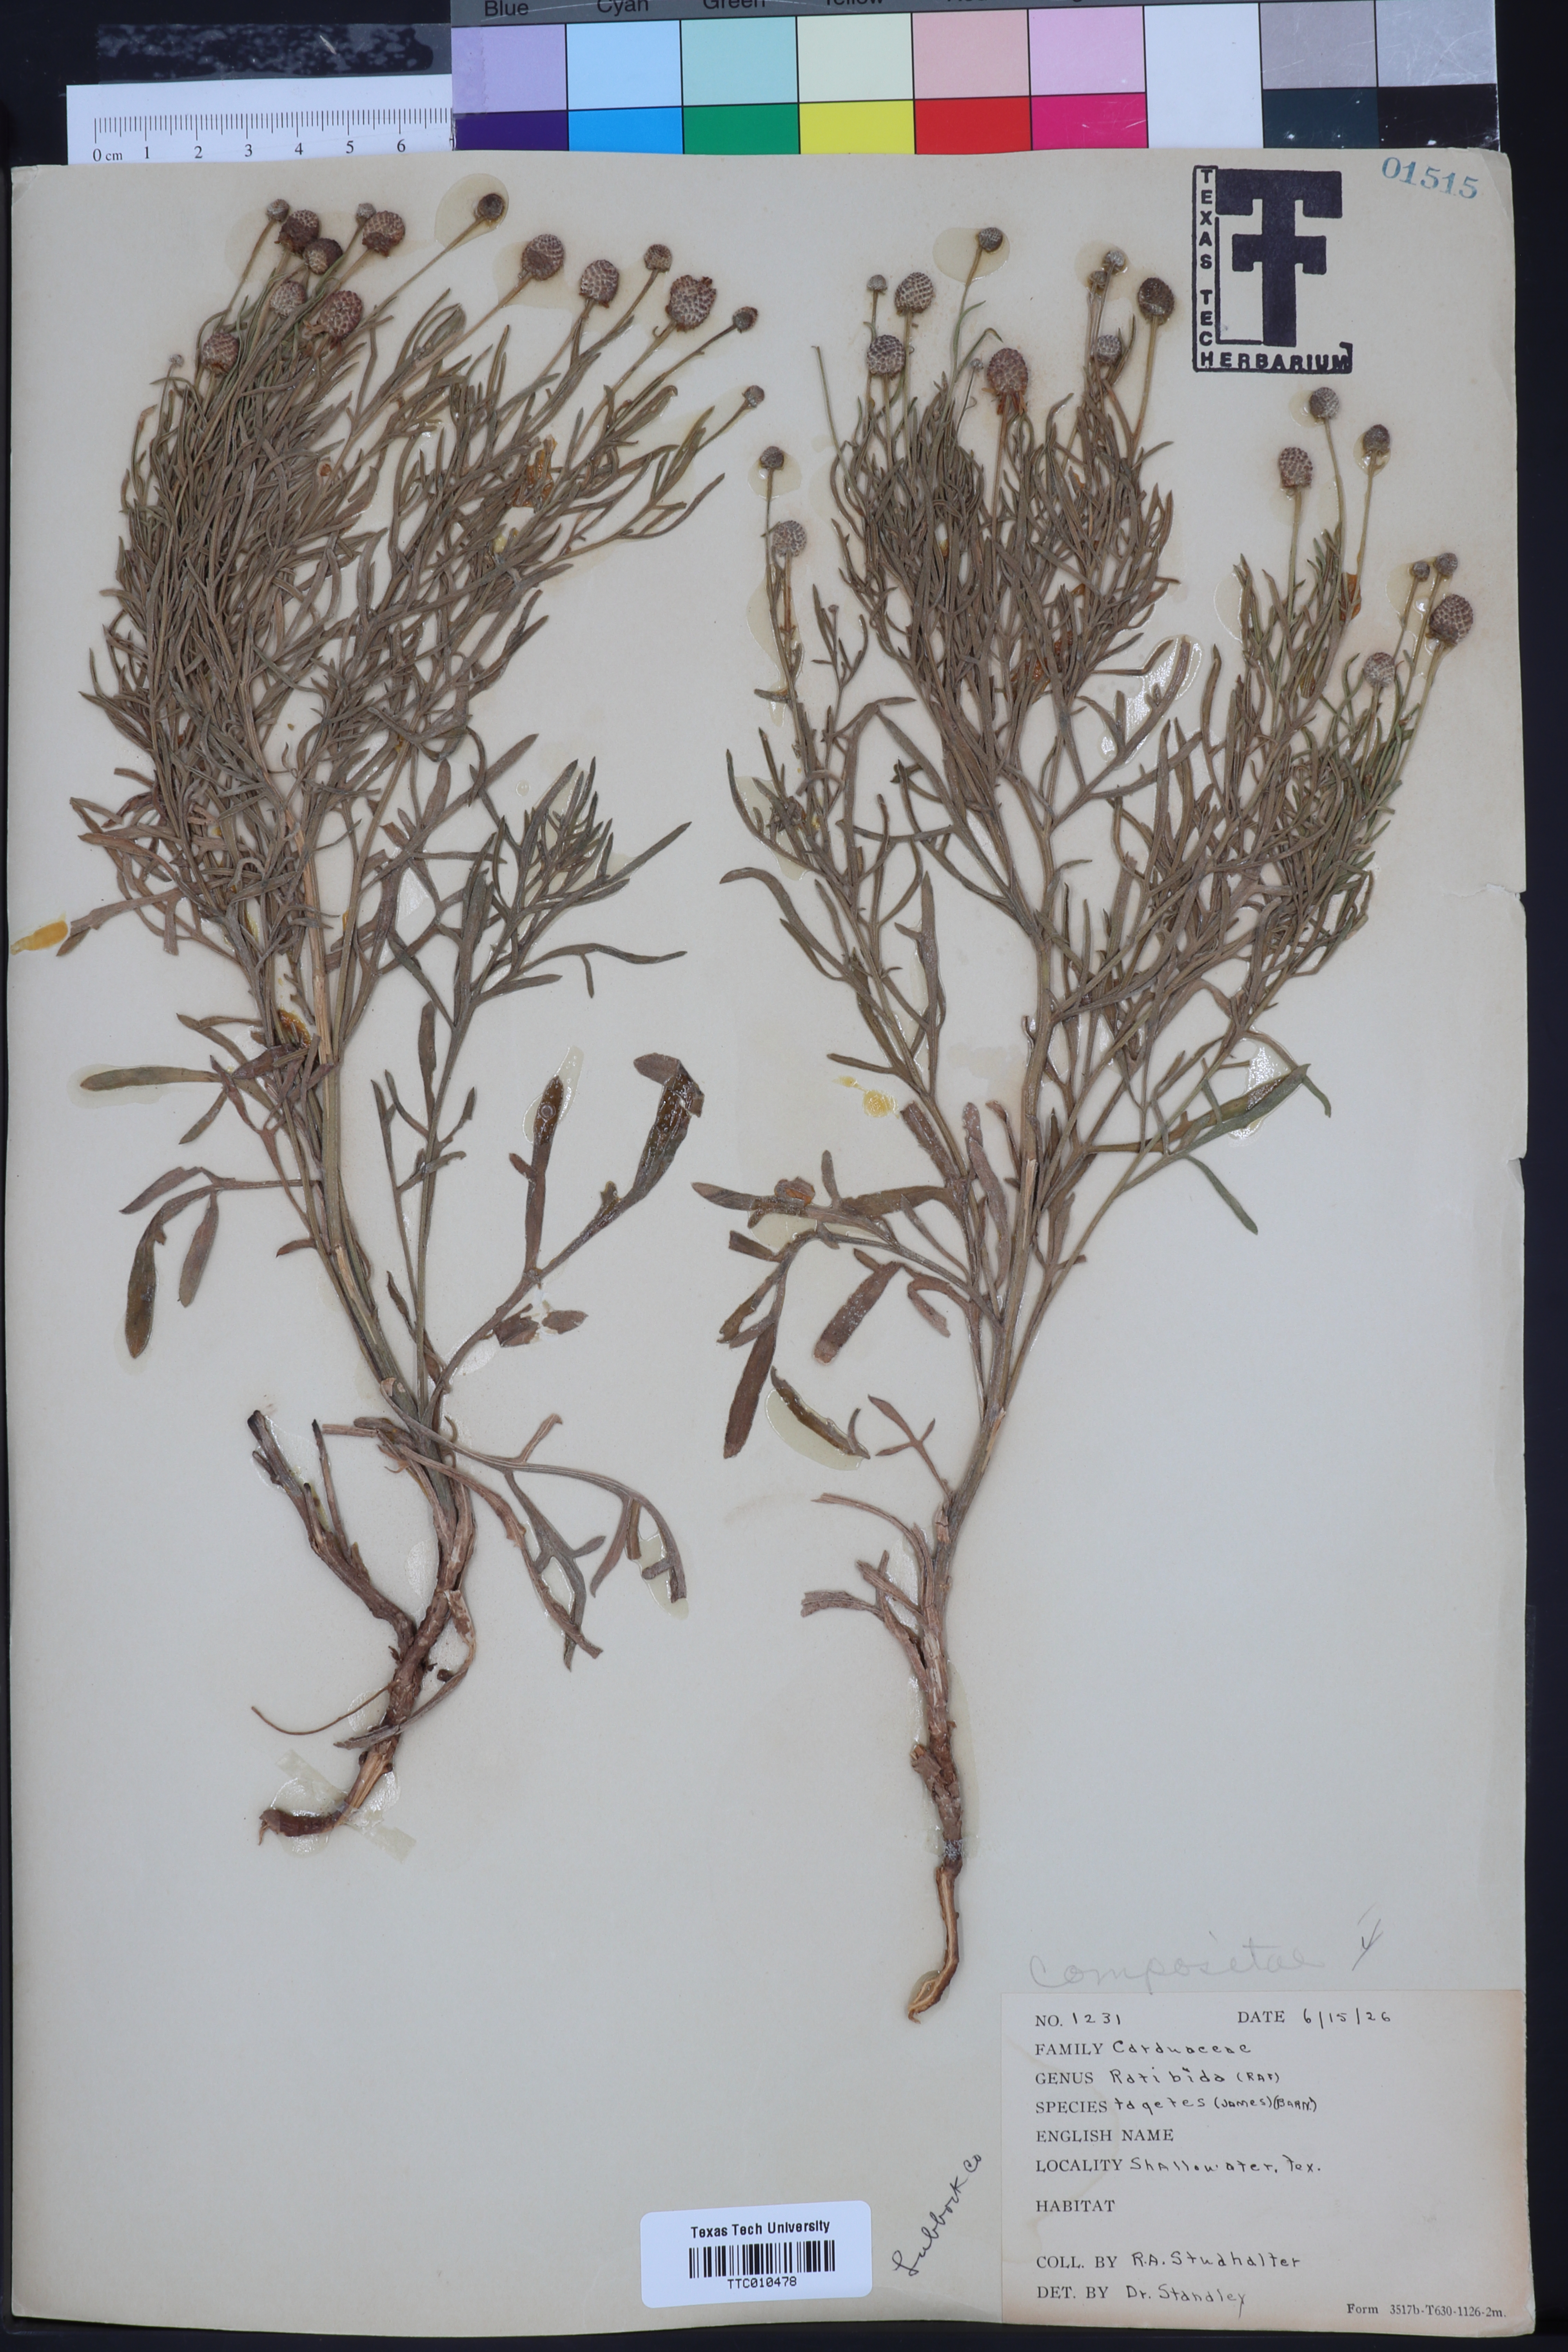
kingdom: Plantae
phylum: Tracheophyta
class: Magnoliopsida
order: Asterales
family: Asteraceae
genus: Ratibida
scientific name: Ratibida tagetes
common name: Green mexican-hat
